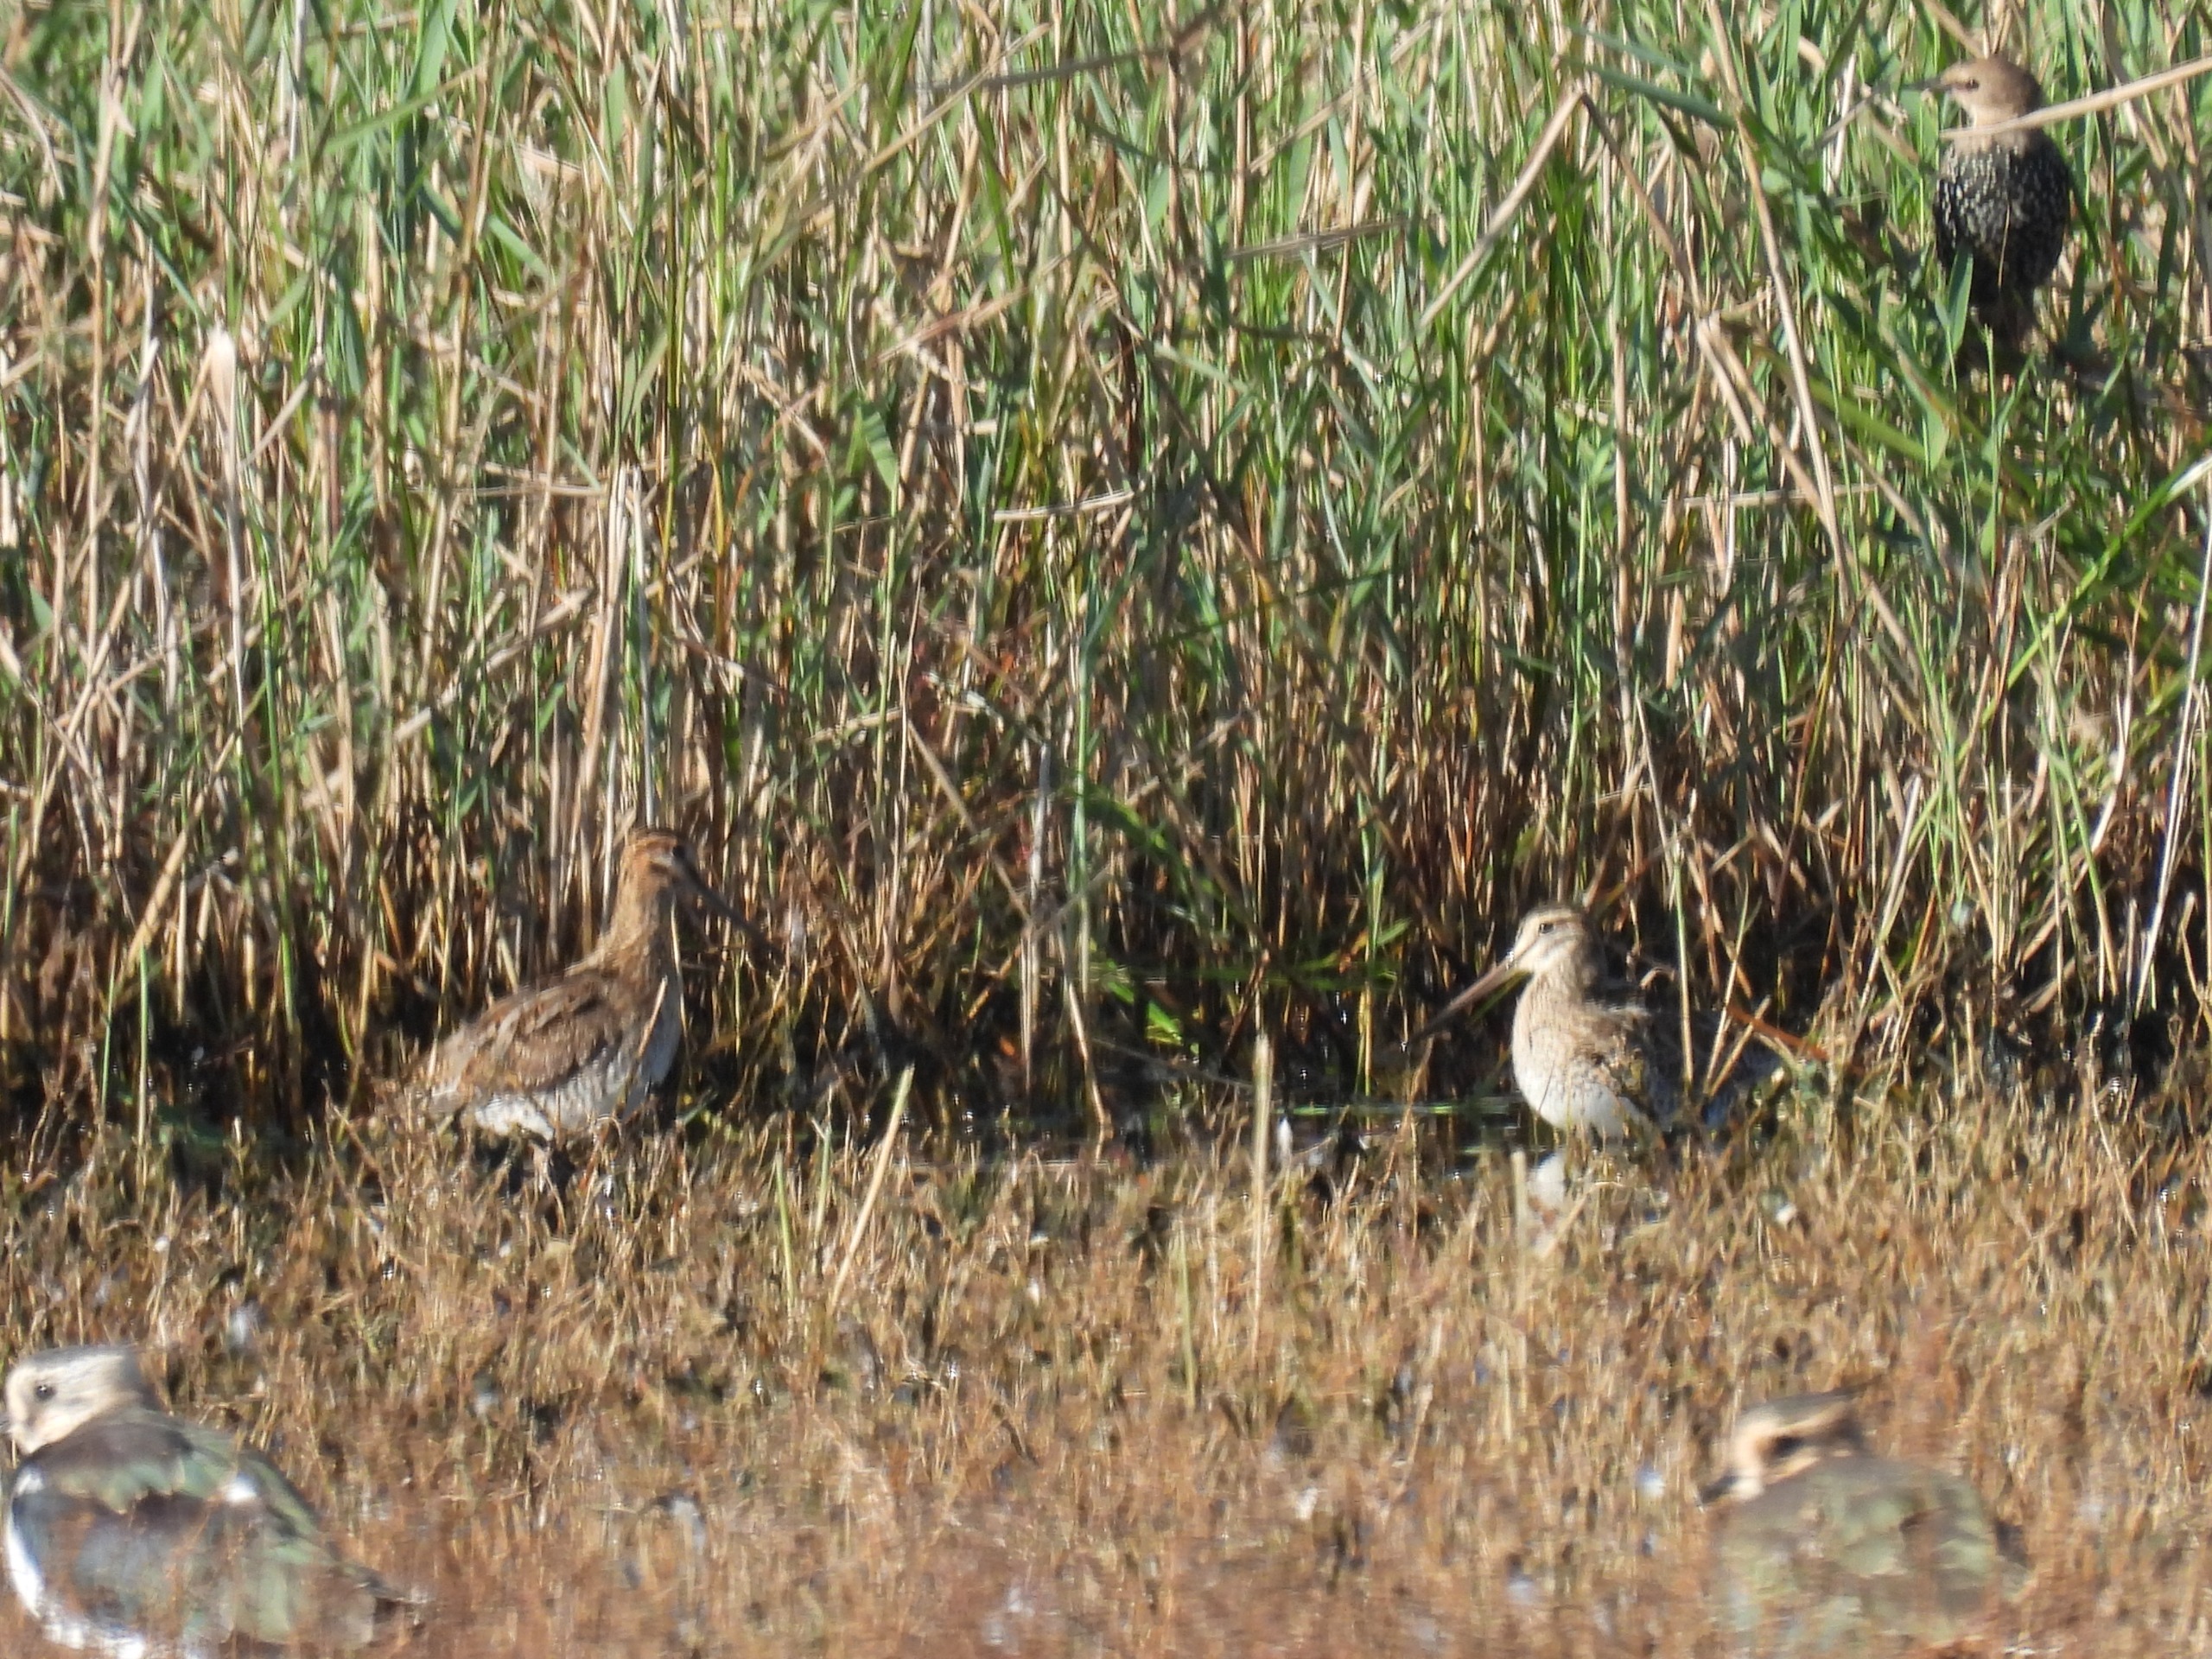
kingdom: Animalia
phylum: Chordata
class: Aves
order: Charadriiformes
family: Scolopacidae
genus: Gallinago
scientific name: Gallinago gallinago
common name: Dobbeltbekkasin
